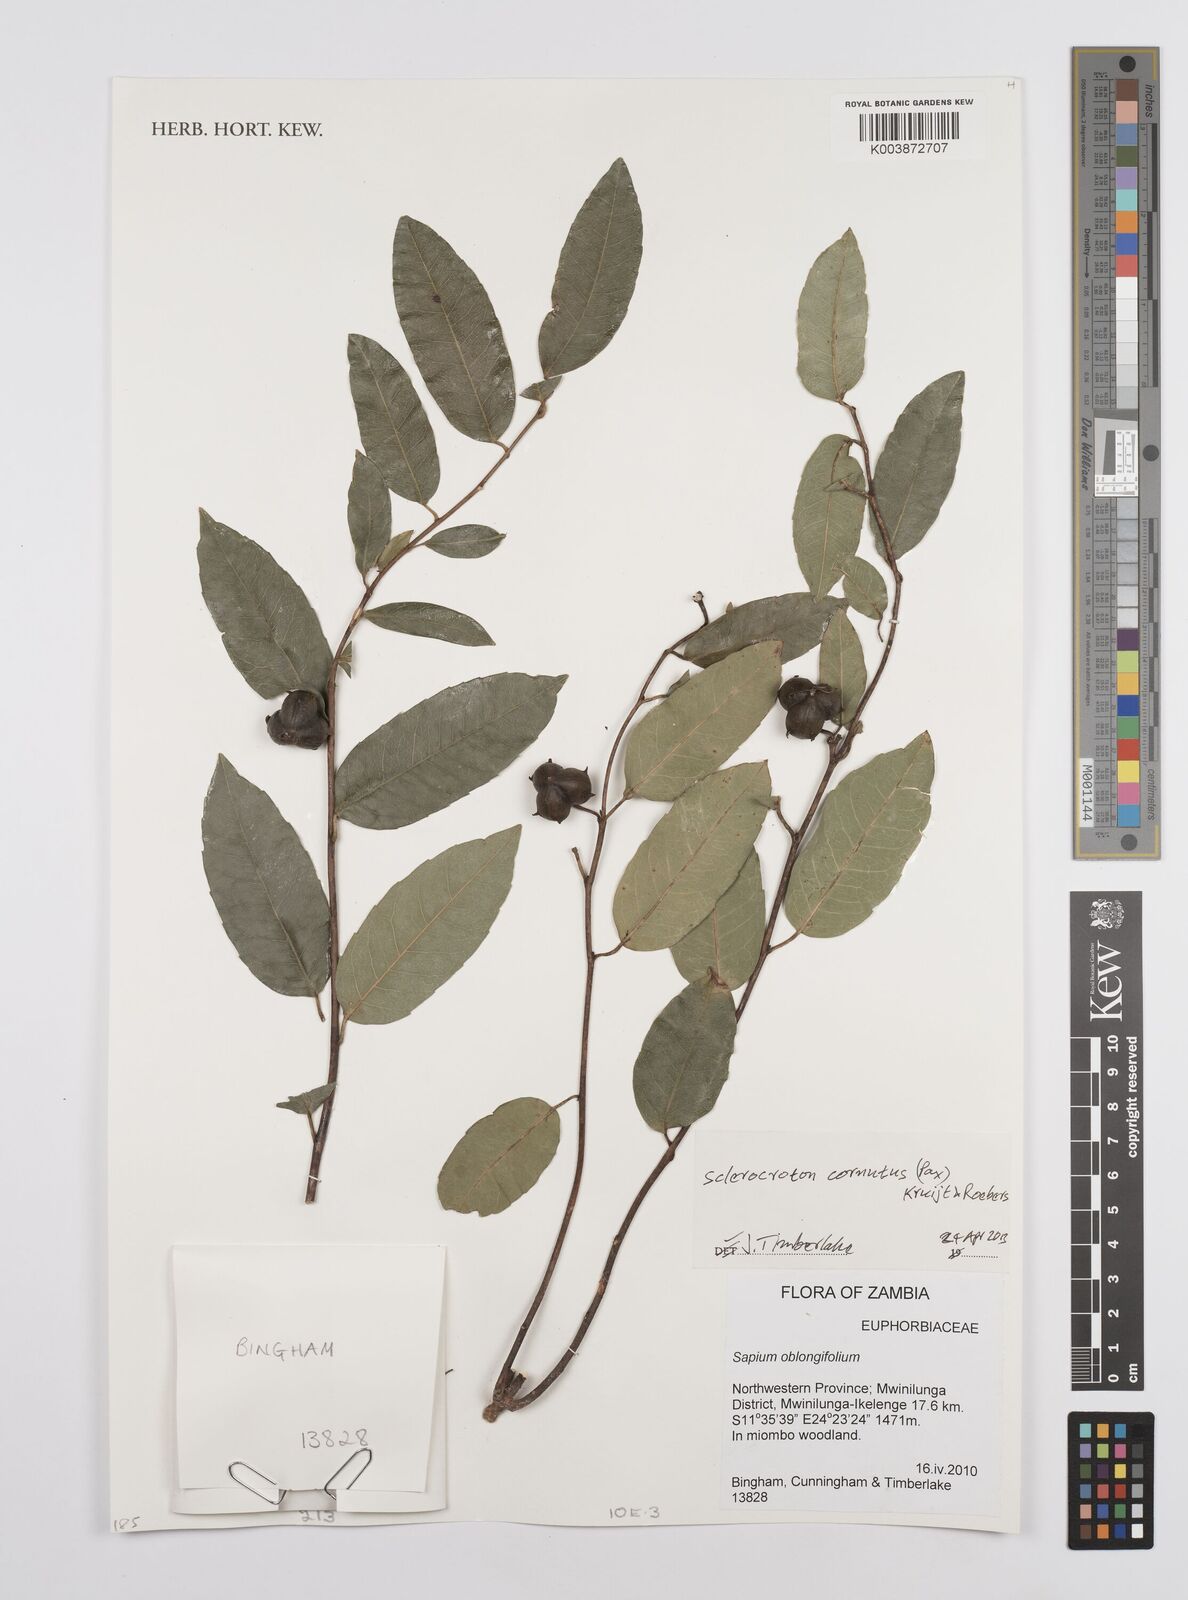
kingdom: Plantae
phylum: Tracheophyta
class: Magnoliopsida
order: Malpighiales
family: Euphorbiaceae
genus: Sclerocroton
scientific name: Sclerocroton cornutus
